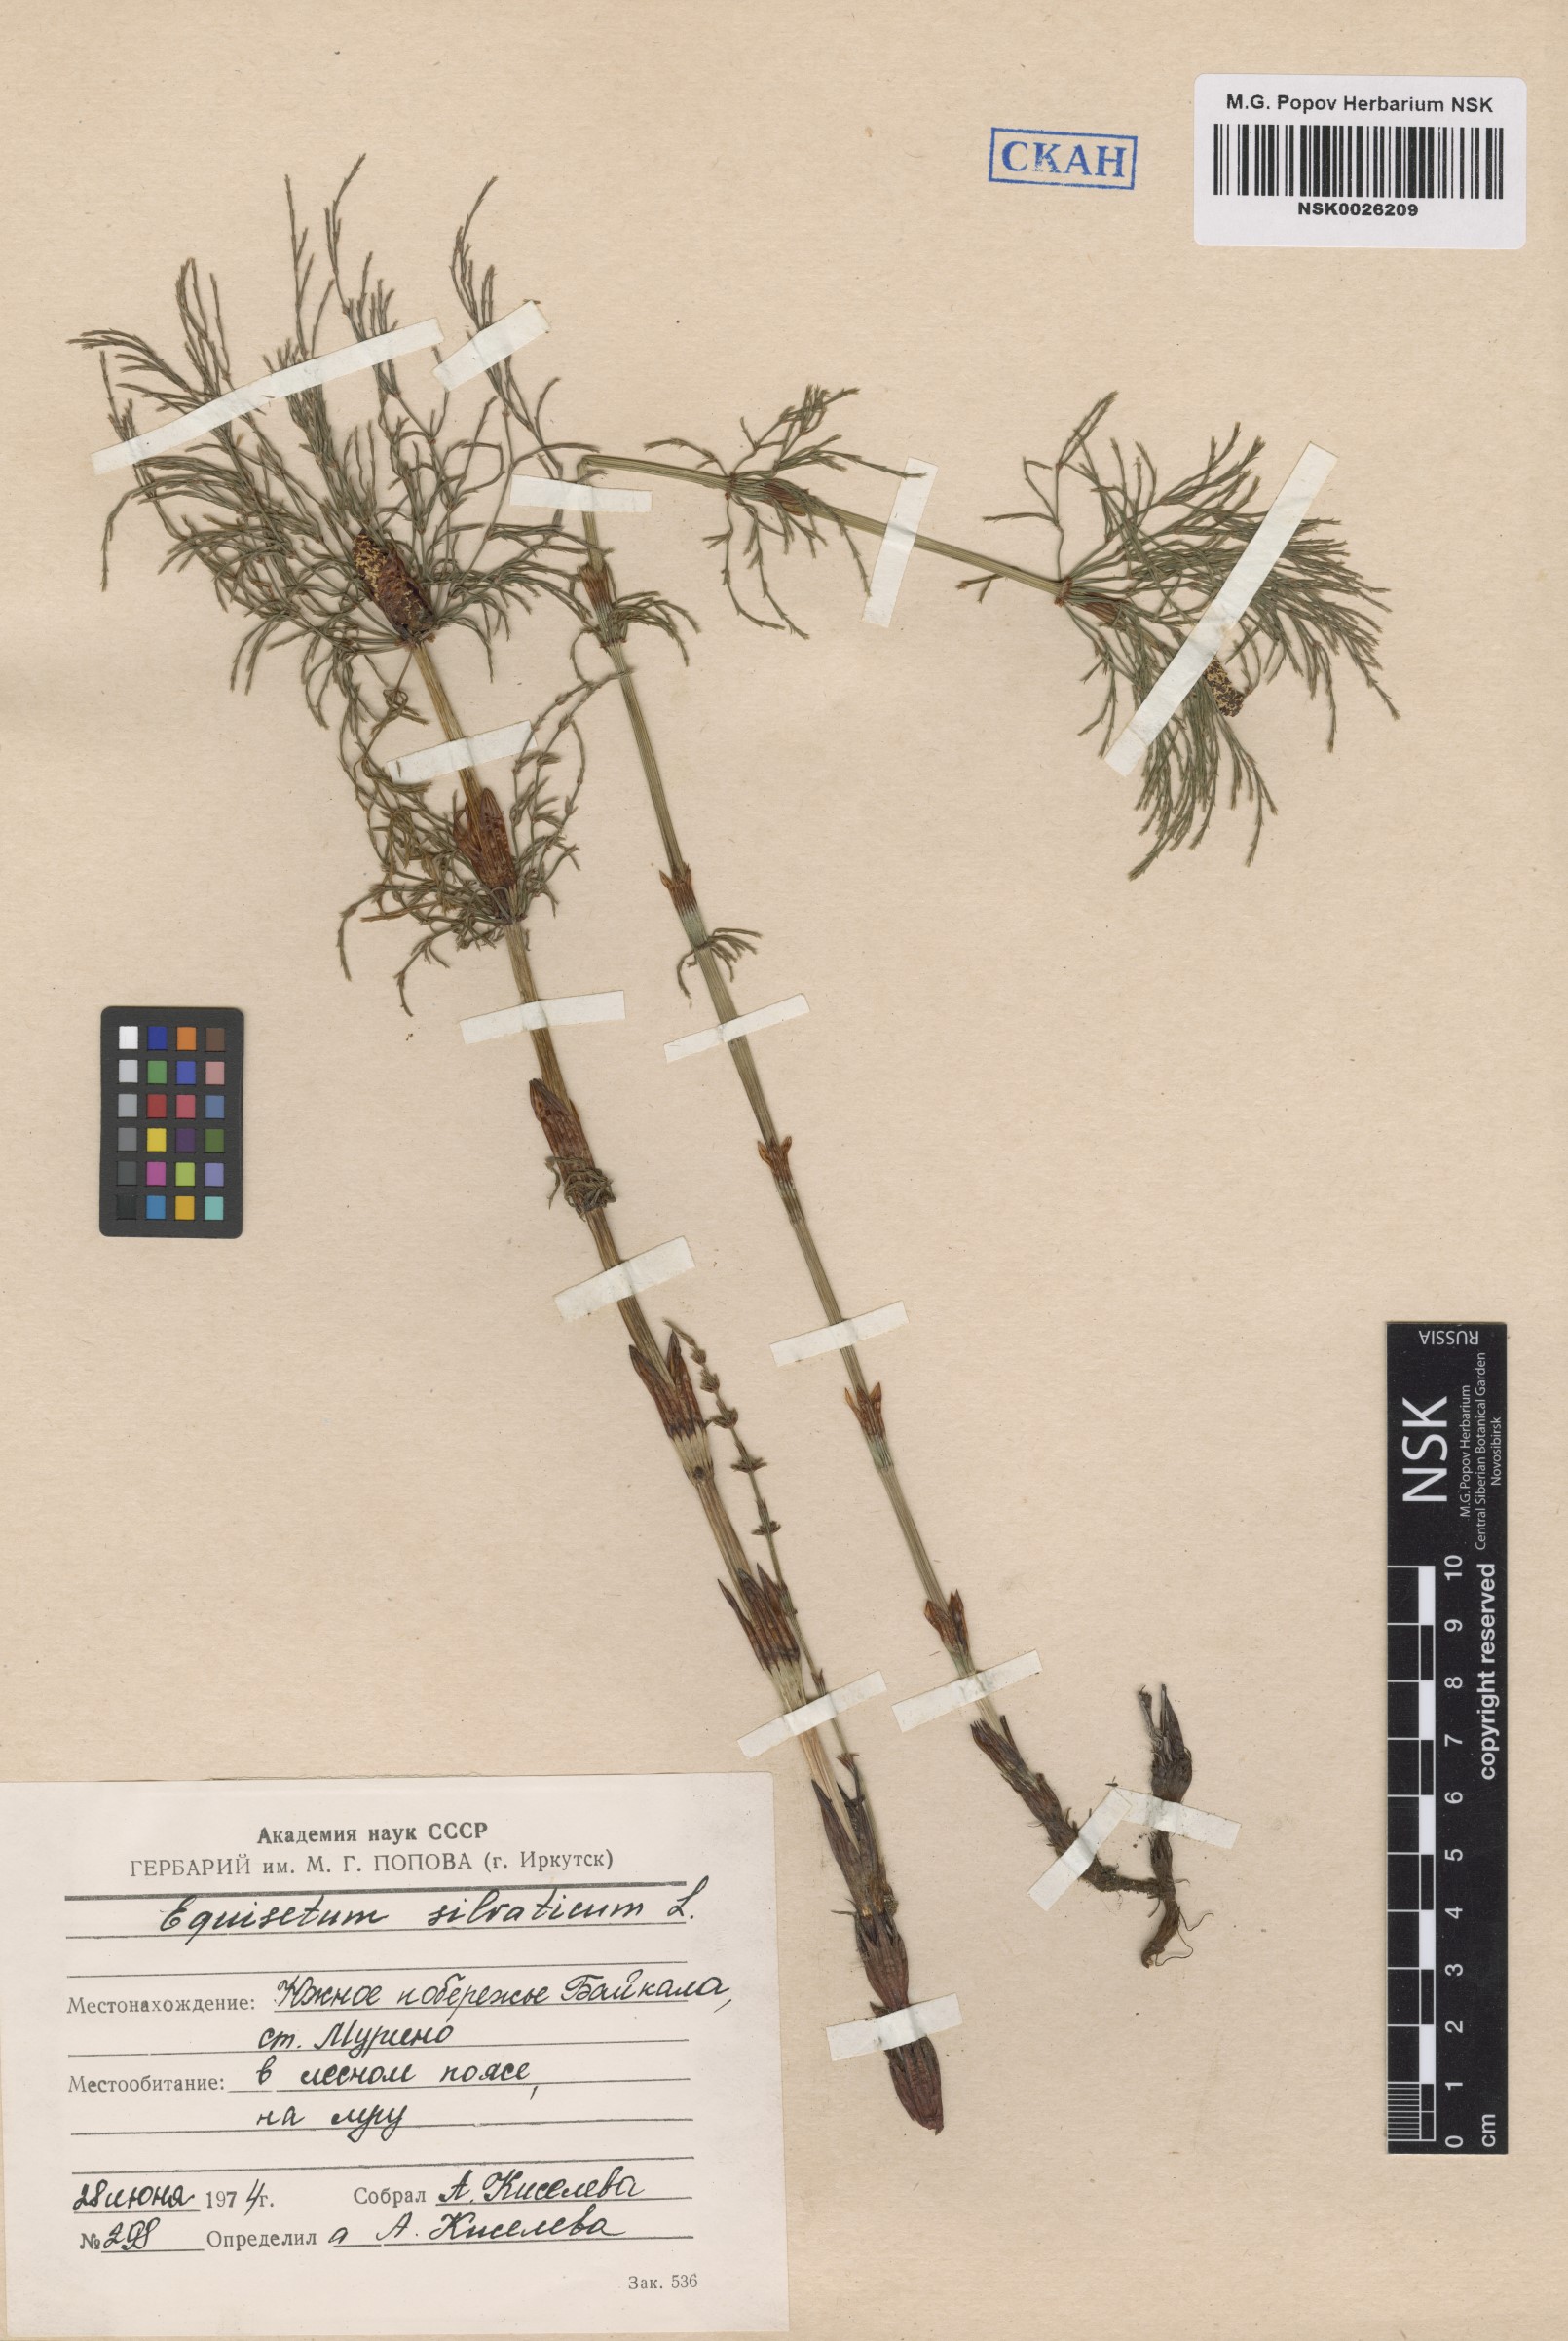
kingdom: Plantae
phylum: Tracheophyta
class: Polypodiopsida
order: Equisetales
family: Equisetaceae
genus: Equisetum
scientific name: Equisetum sylvaticum
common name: Wood horsetail
